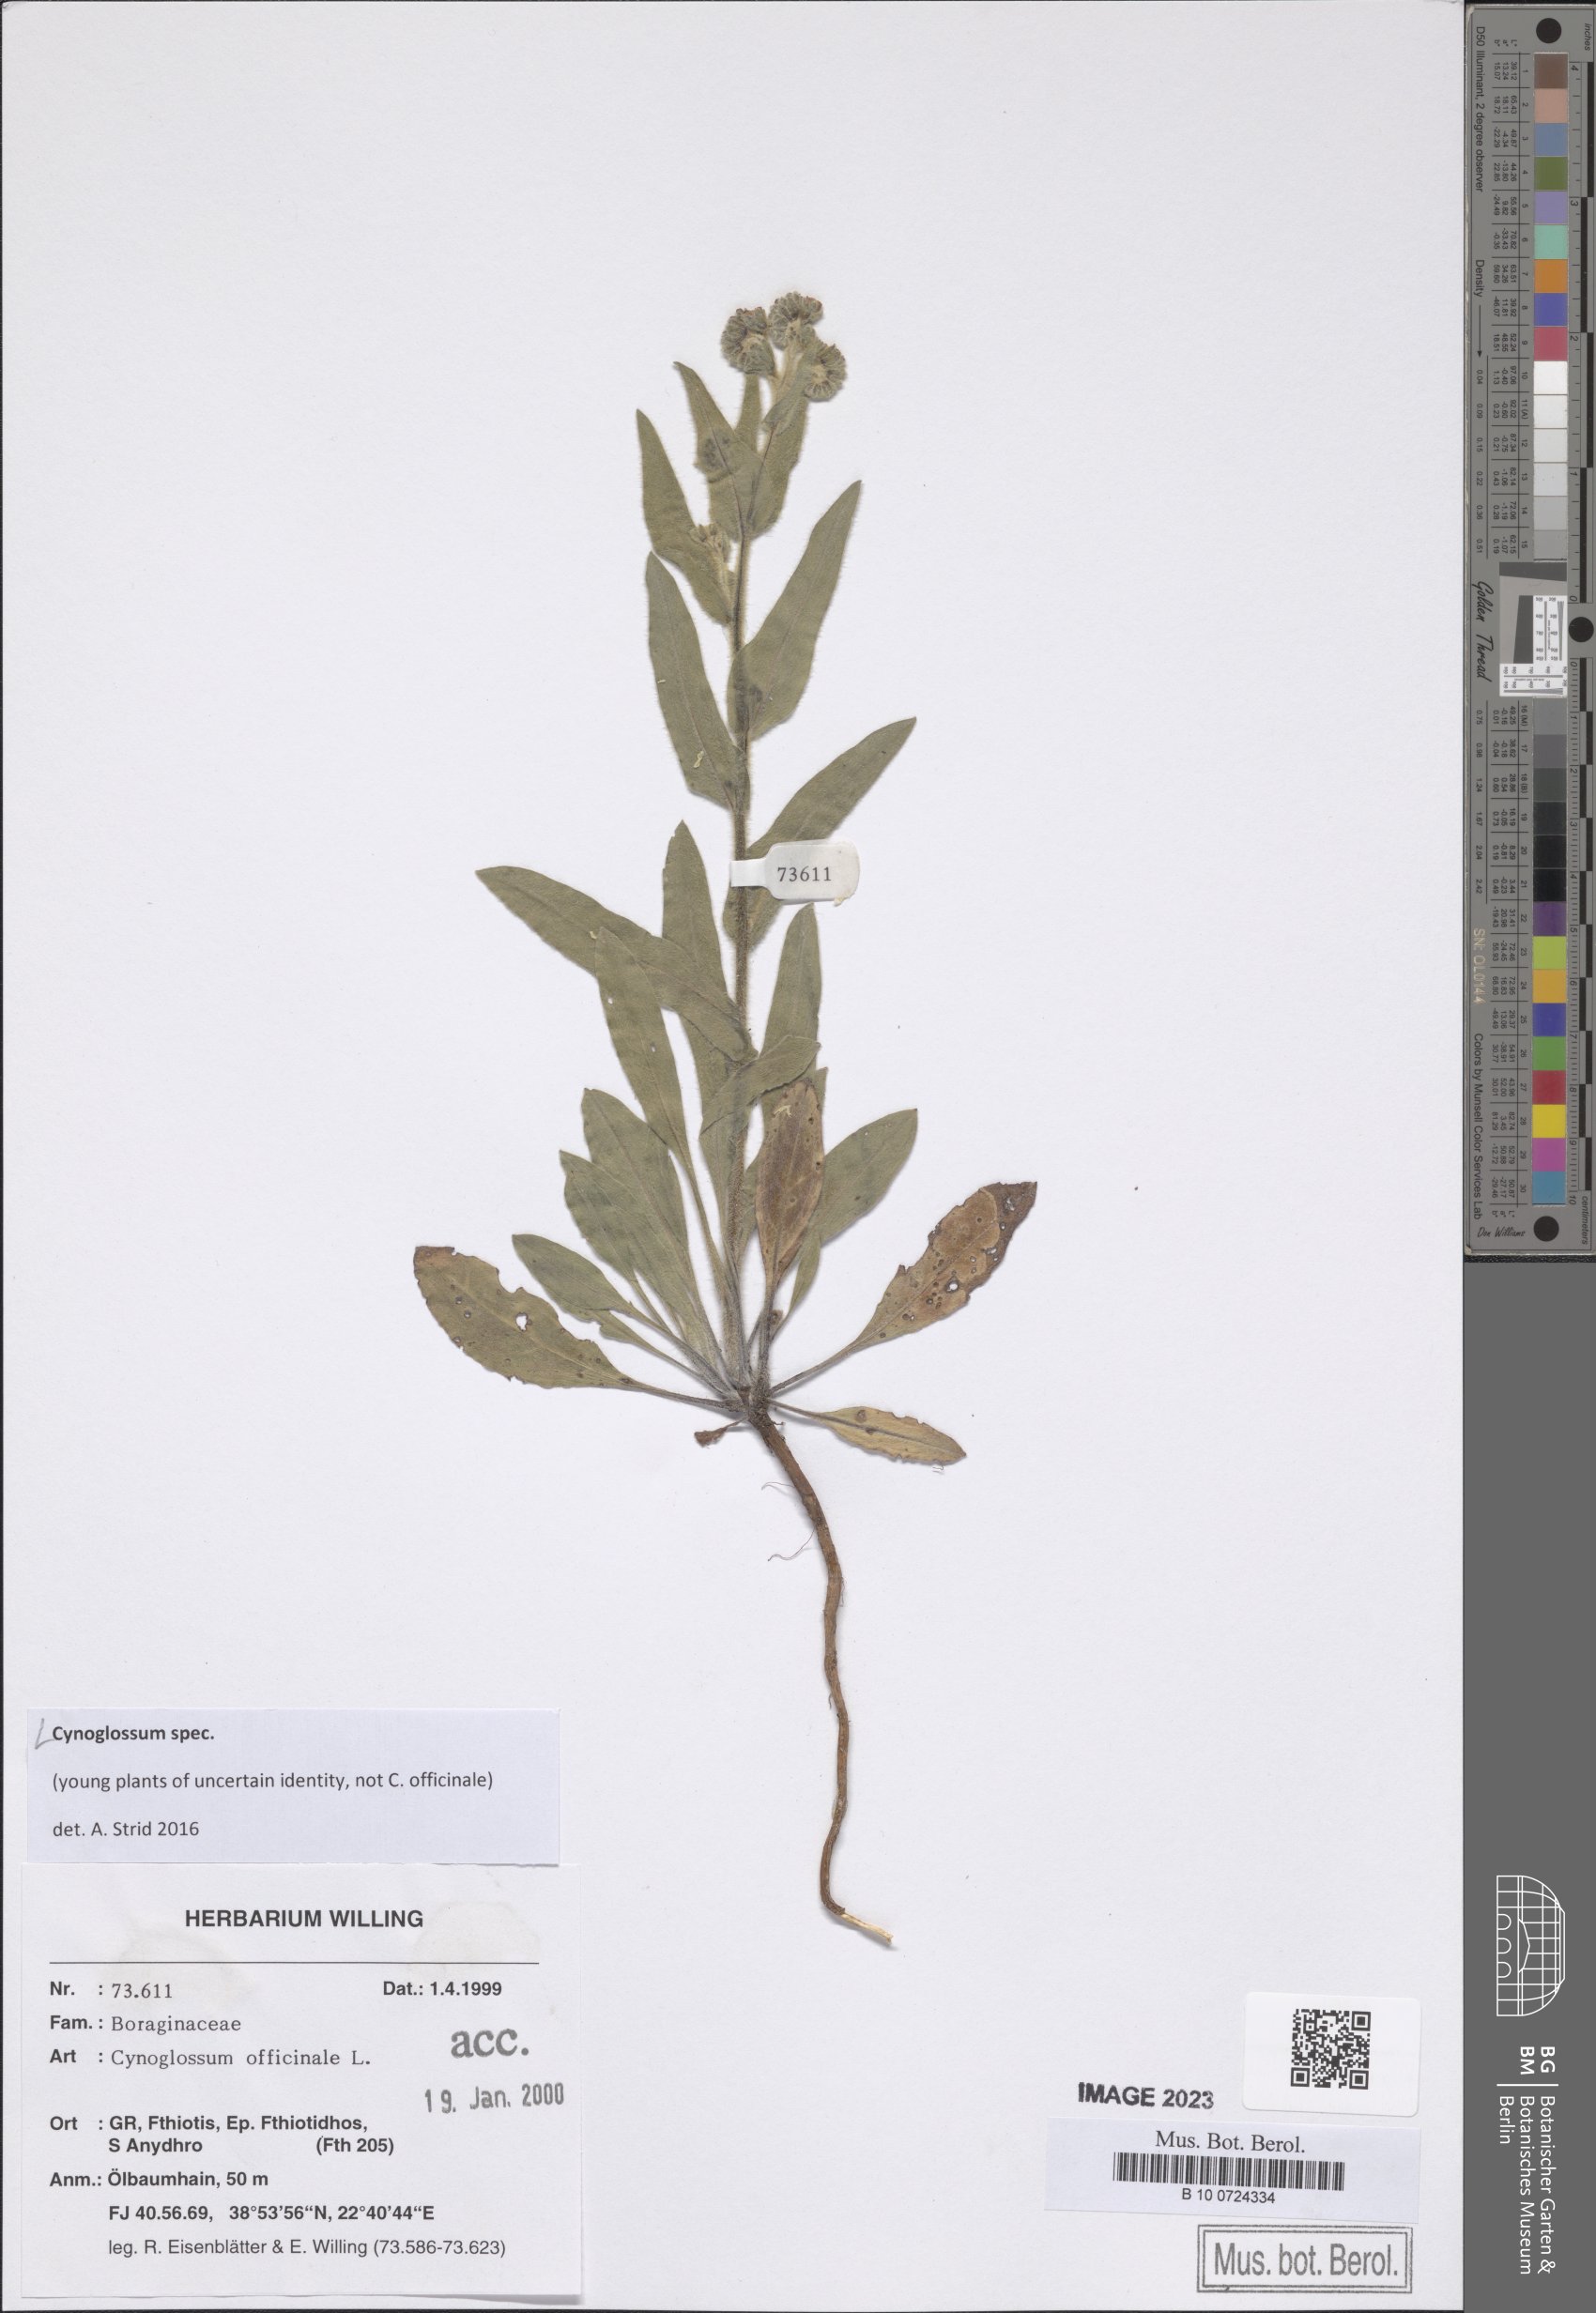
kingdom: Plantae
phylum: Tracheophyta
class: Magnoliopsida
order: Boraginales
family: Boraginaceae
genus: Cynoglossum
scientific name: Cynoglossum
